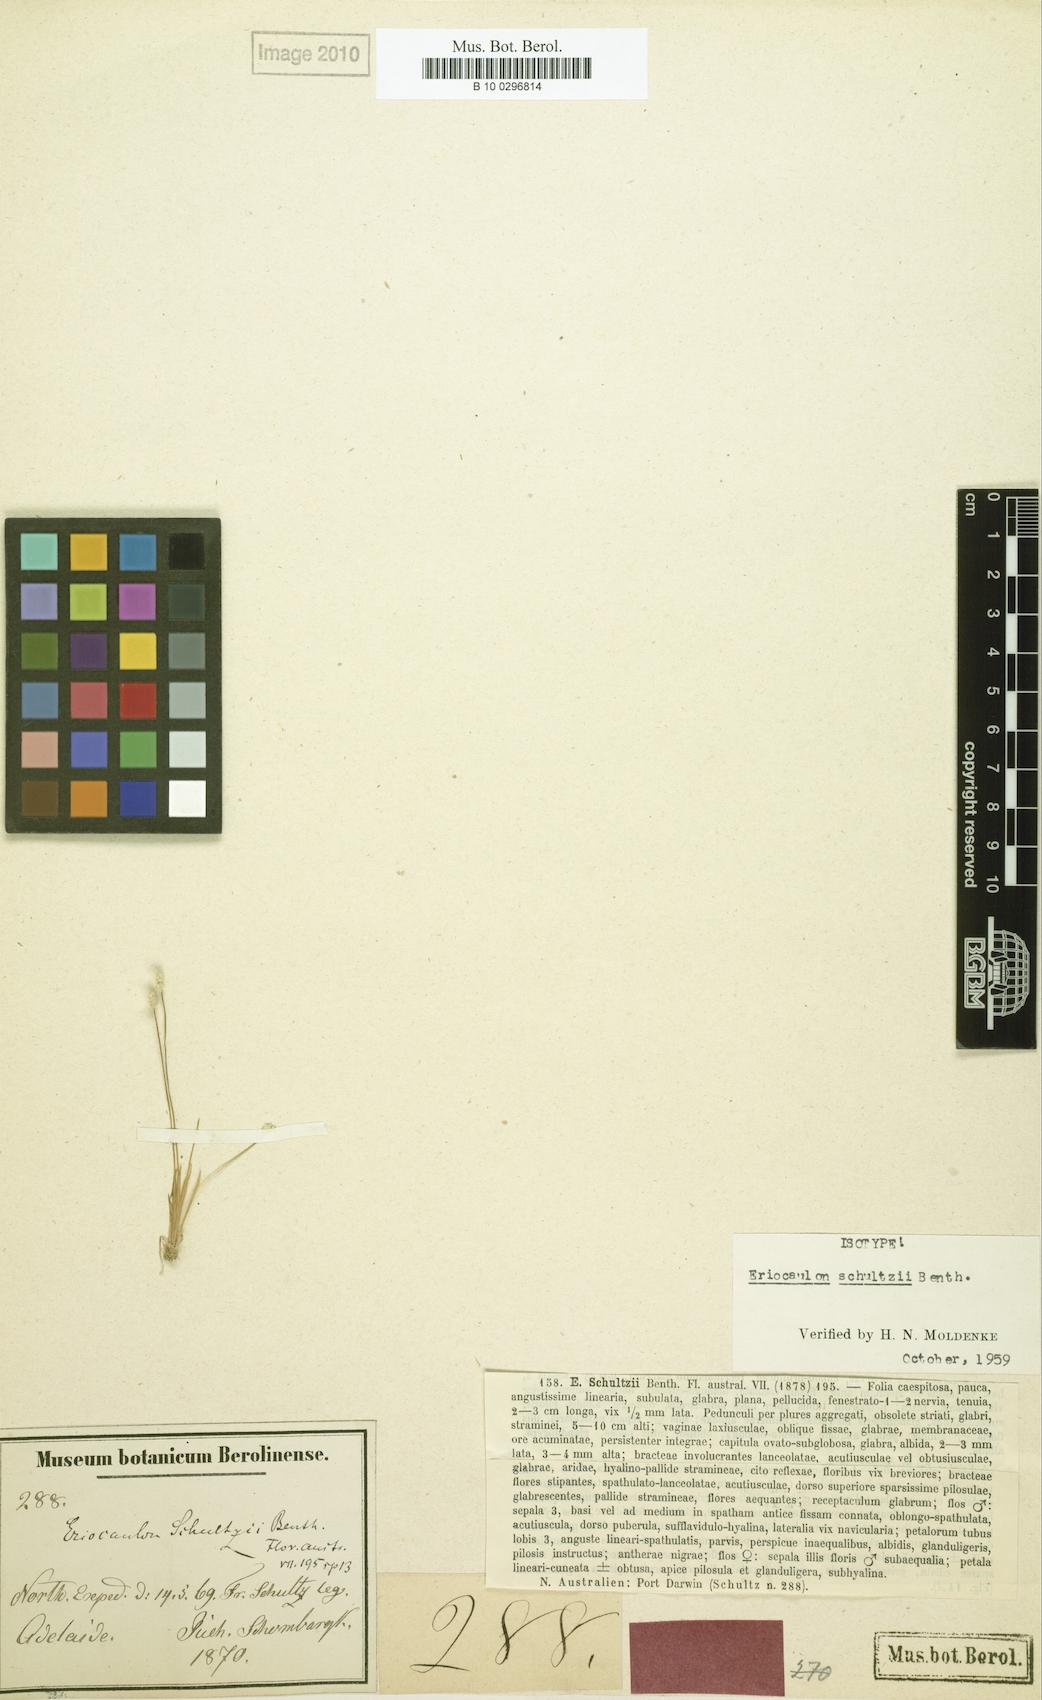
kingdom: Plantae
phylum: Tracheophyta
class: Liliopsida
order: Poales
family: Eriocaulaceae
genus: Eriocaulon
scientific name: Eriocaulon schultzii
